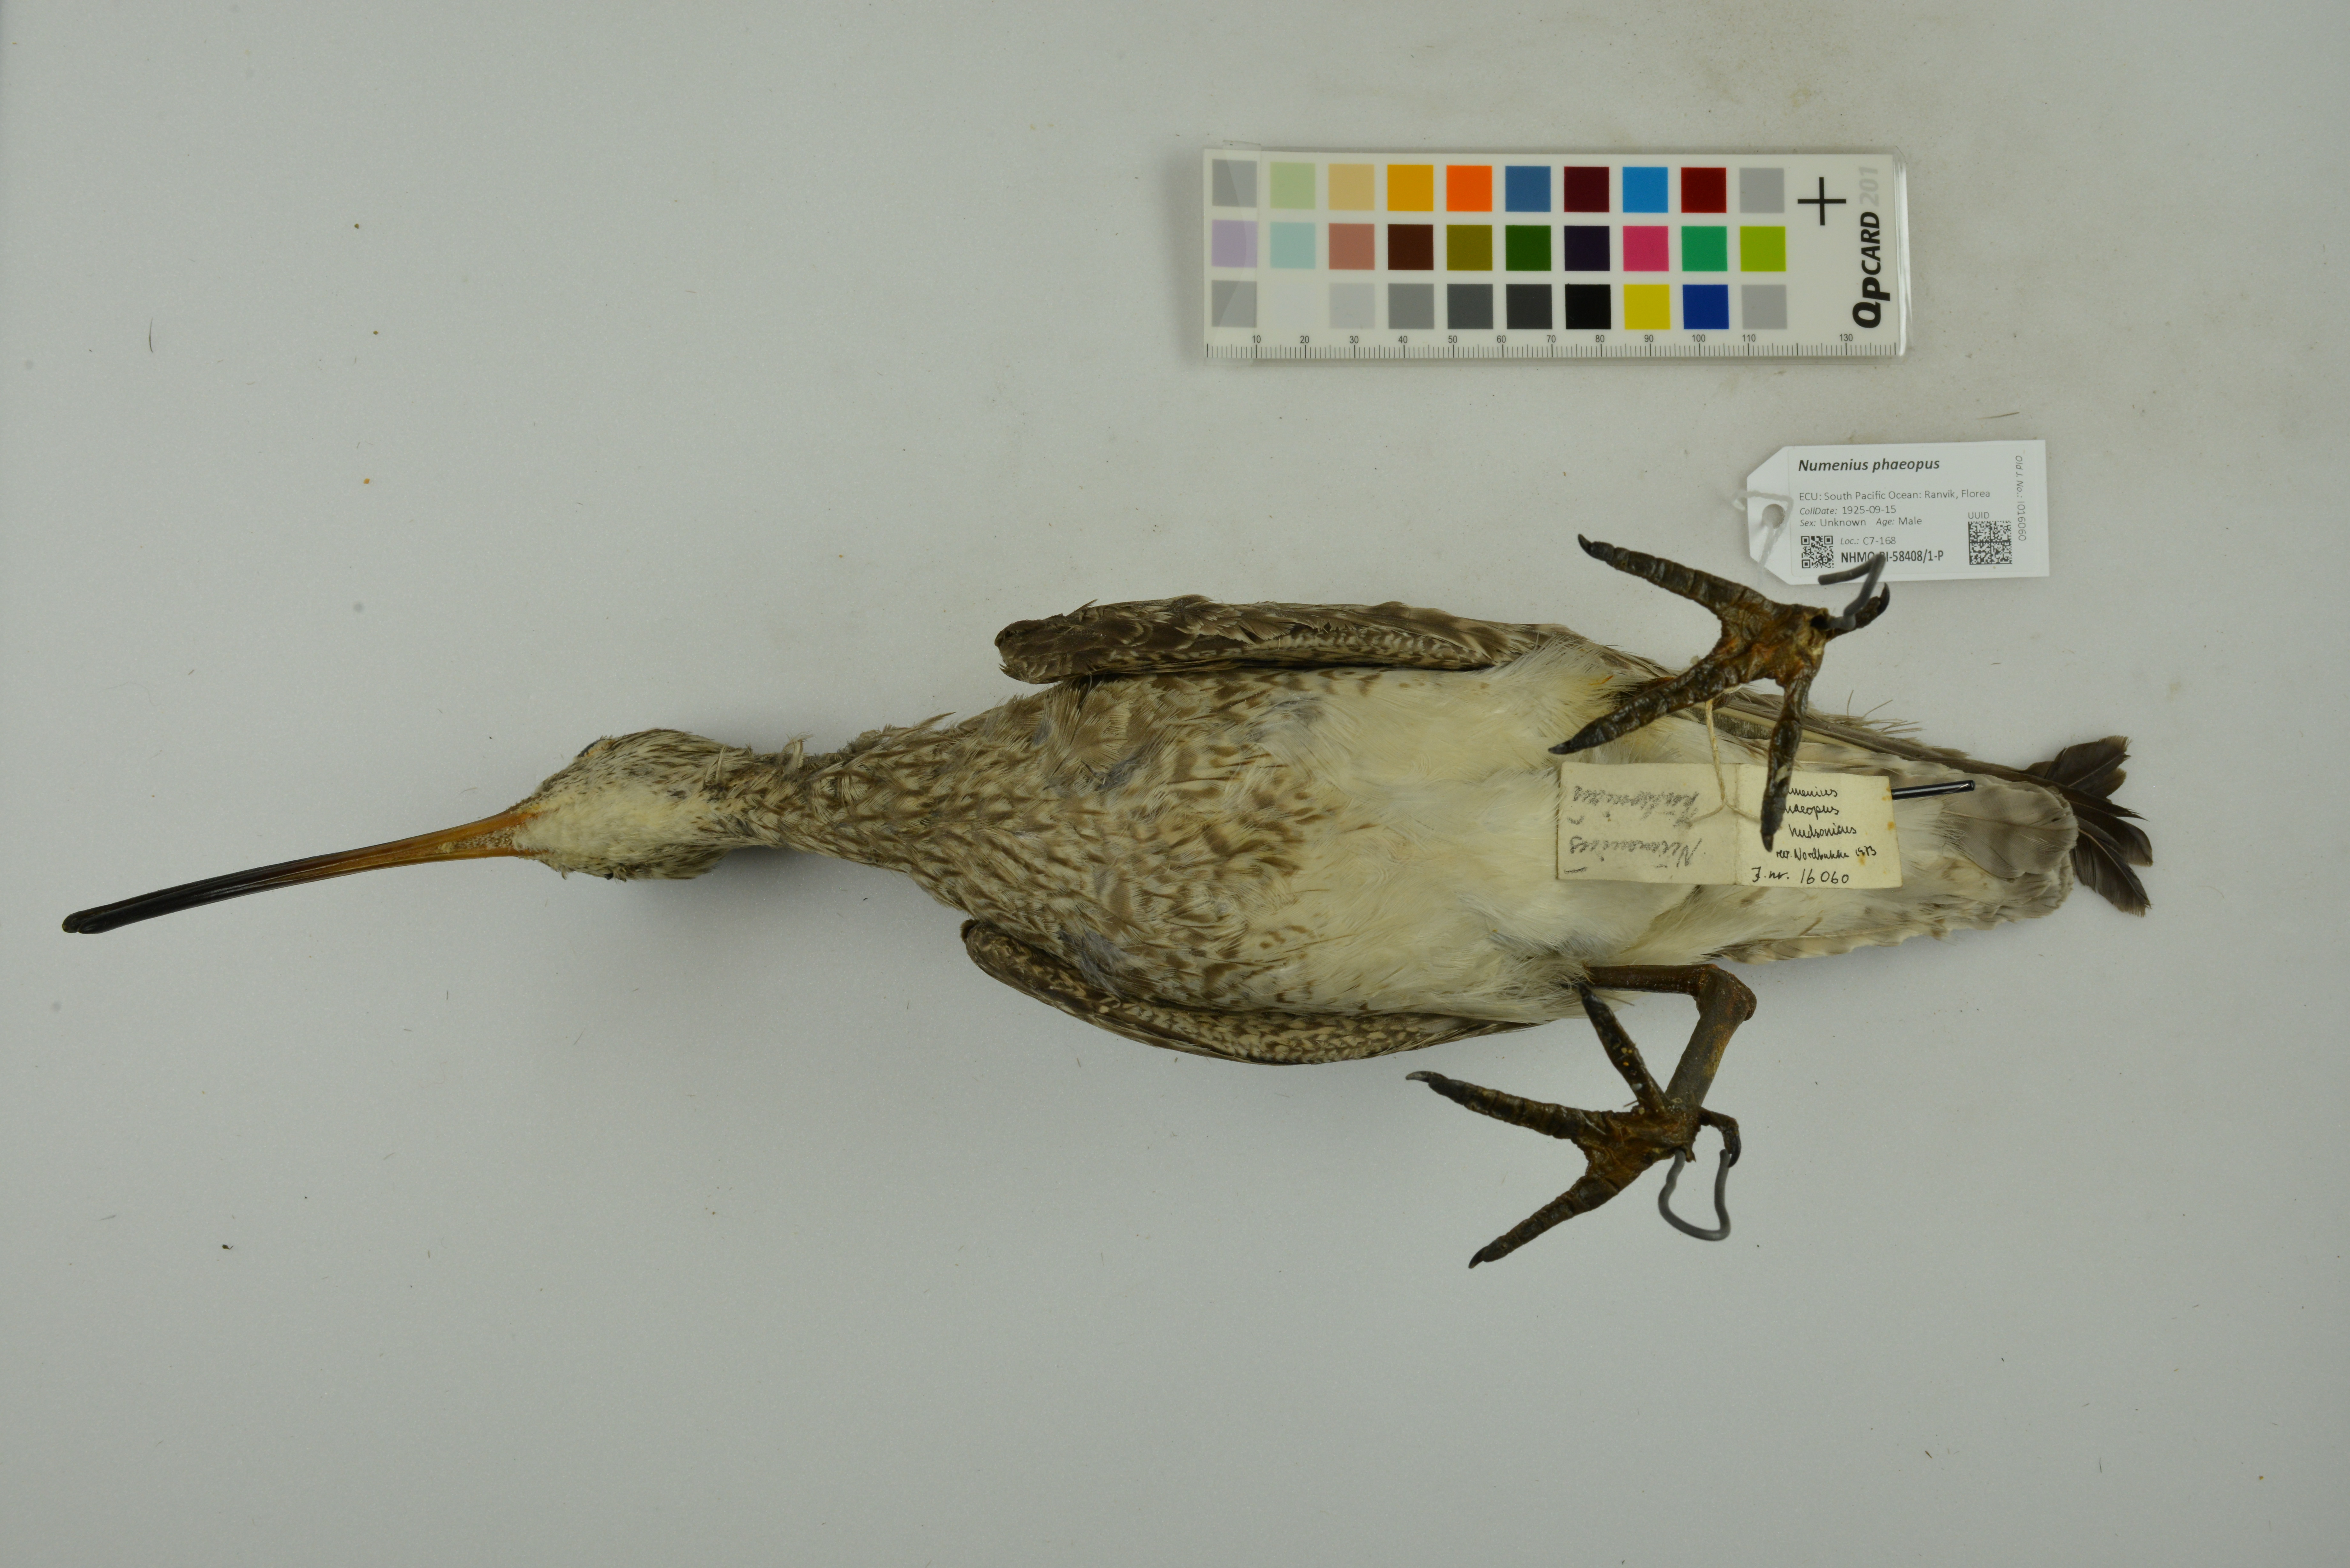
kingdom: Animalia
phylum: Chordata
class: Aves
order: Charadriiformes
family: Scolopacidae
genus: Numenius
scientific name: Numenius phaeopus
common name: Whimbrel
